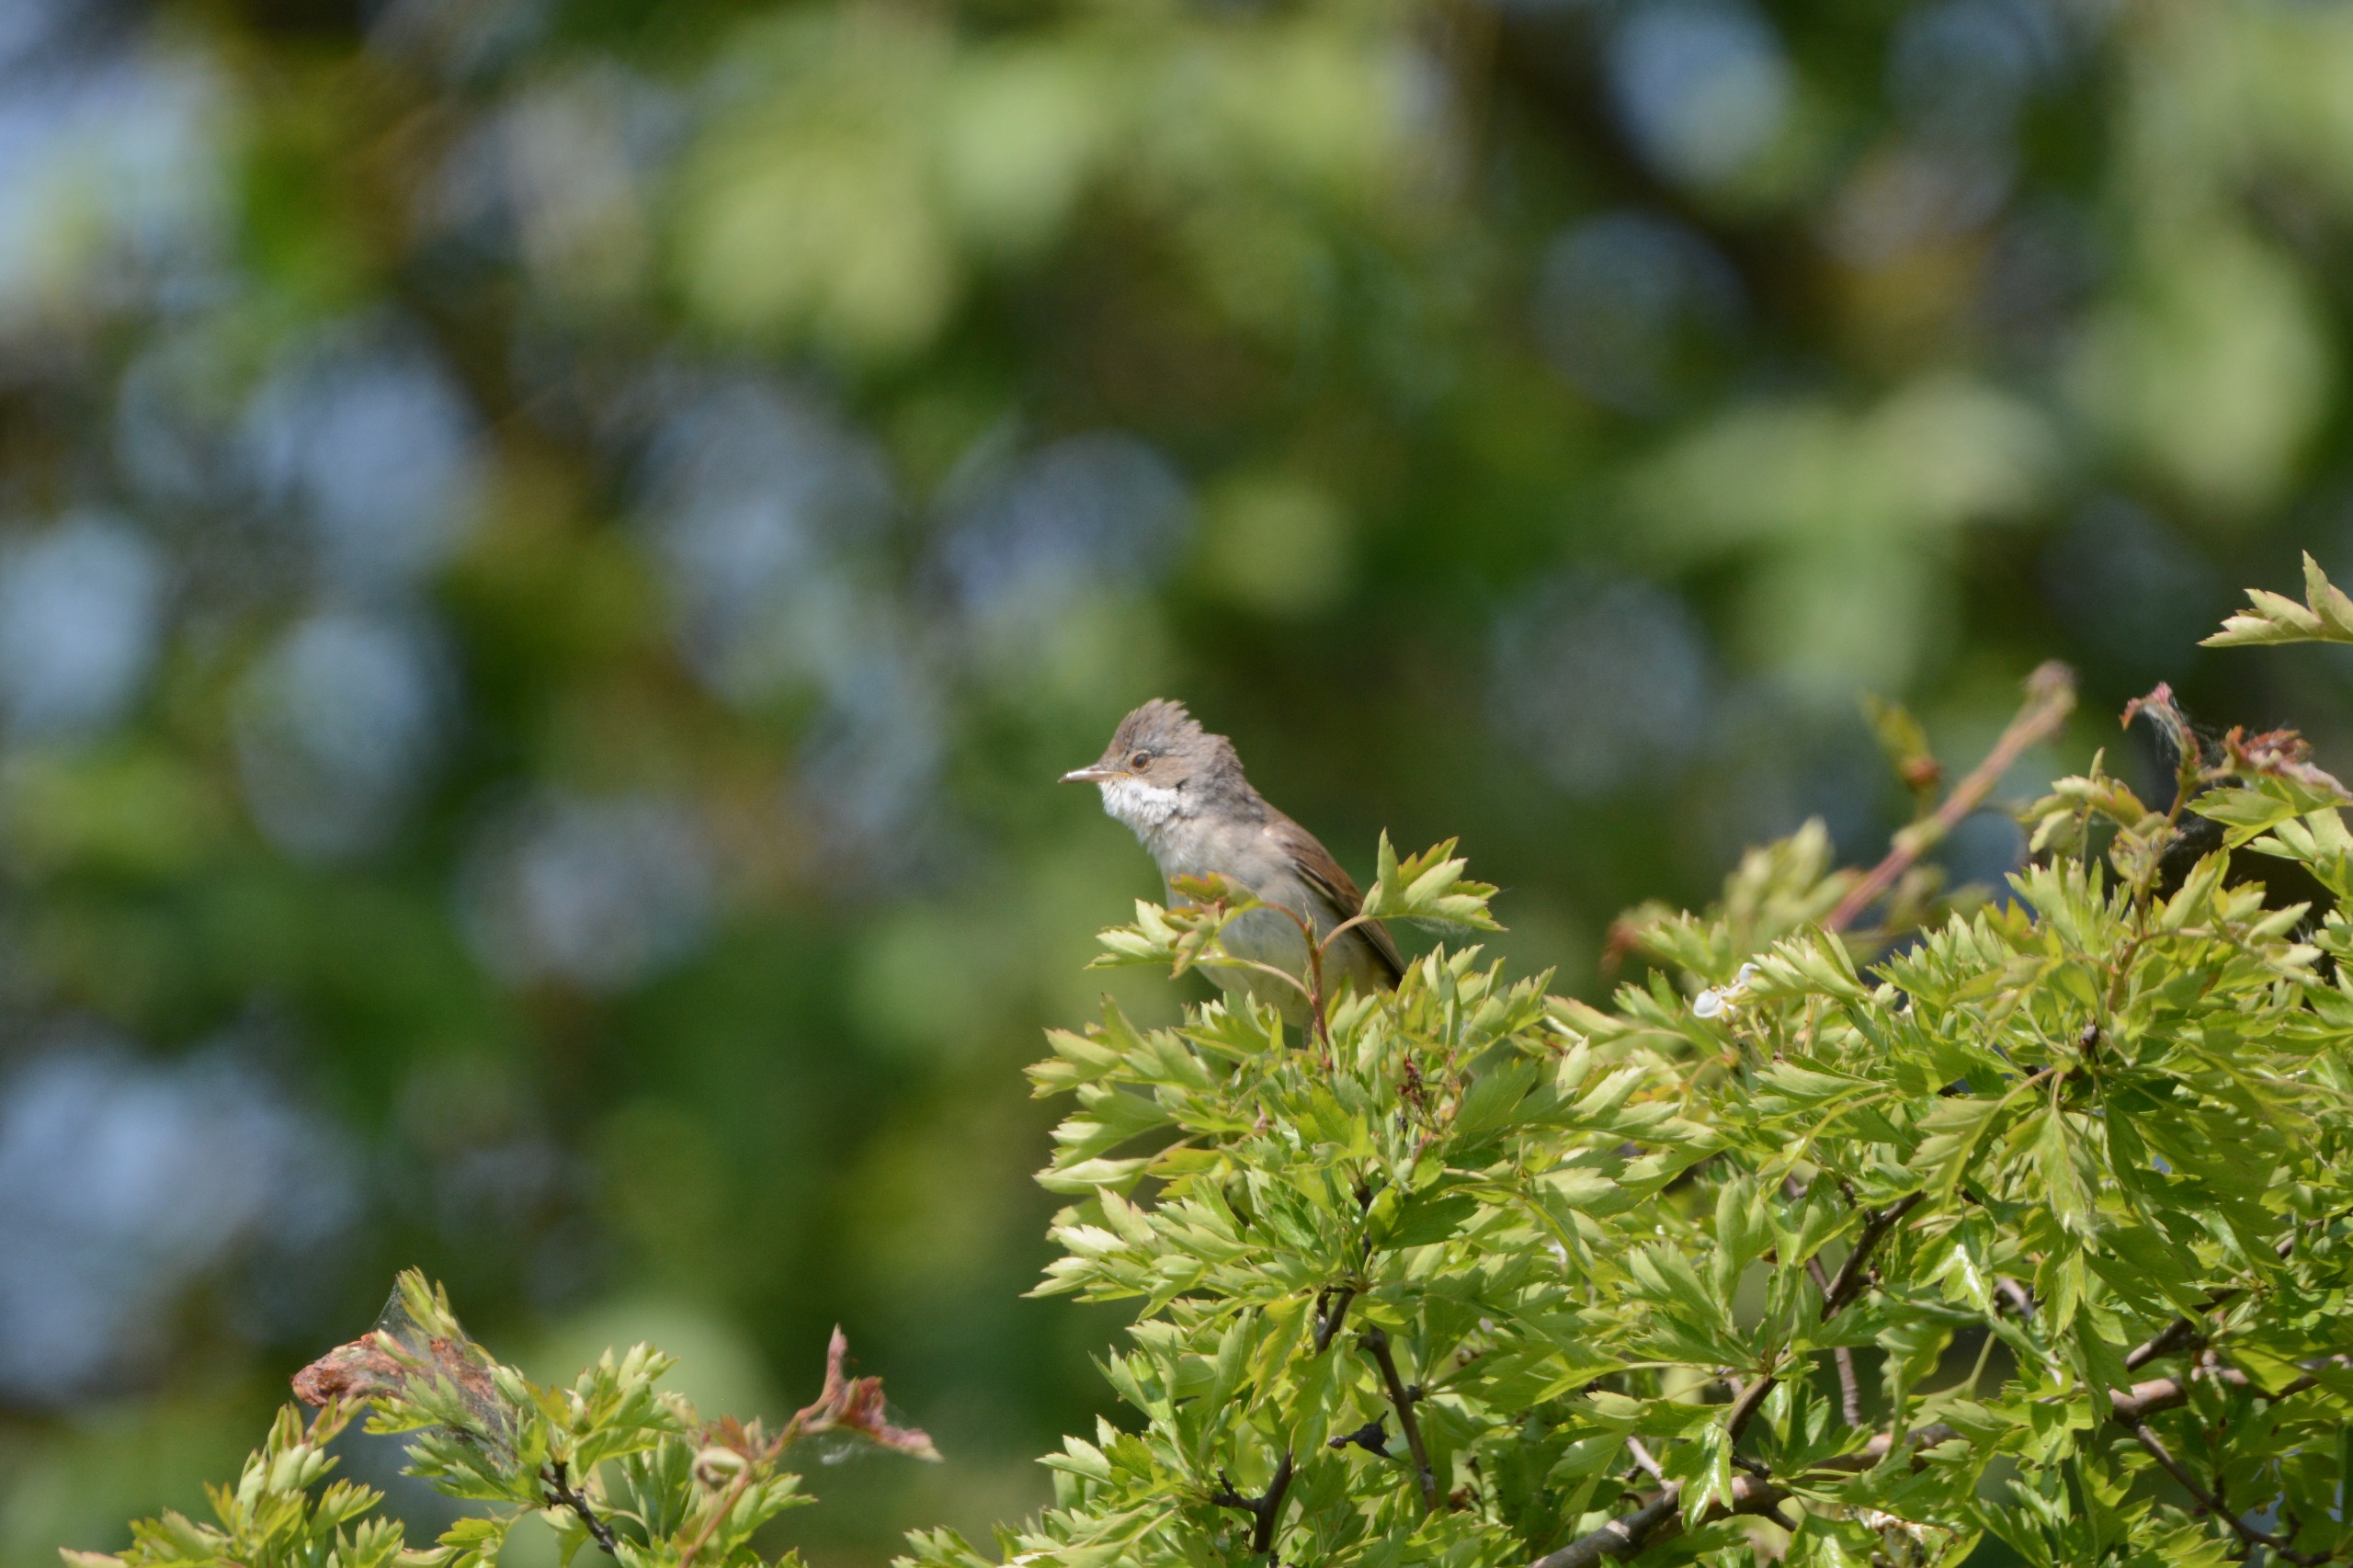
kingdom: Animalia
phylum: Chordata
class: Aves
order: Passeriformes
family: Sylviidae
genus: Sylvia
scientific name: Sylvia communis
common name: Tornsanger
